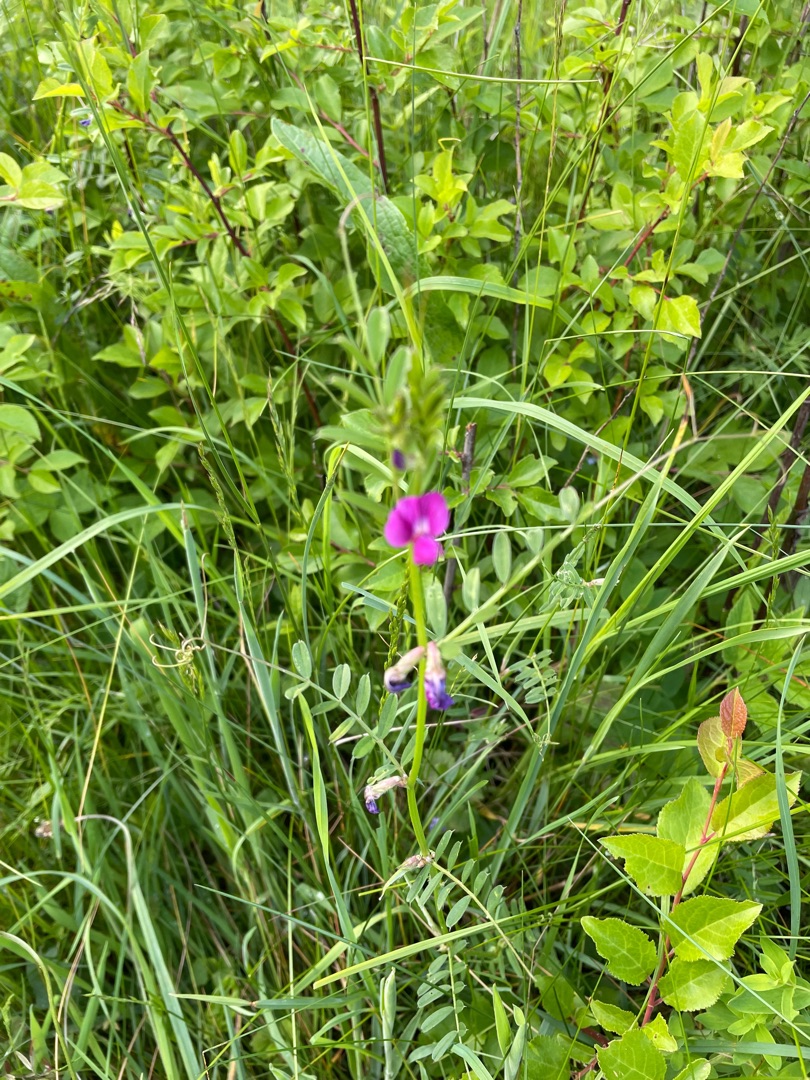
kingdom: Plantae
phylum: Tracheophyta
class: Magnoliopsida
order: Fabales
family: Fabaceae
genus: Vicia
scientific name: Vicia sativa
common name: Foder-vikke
